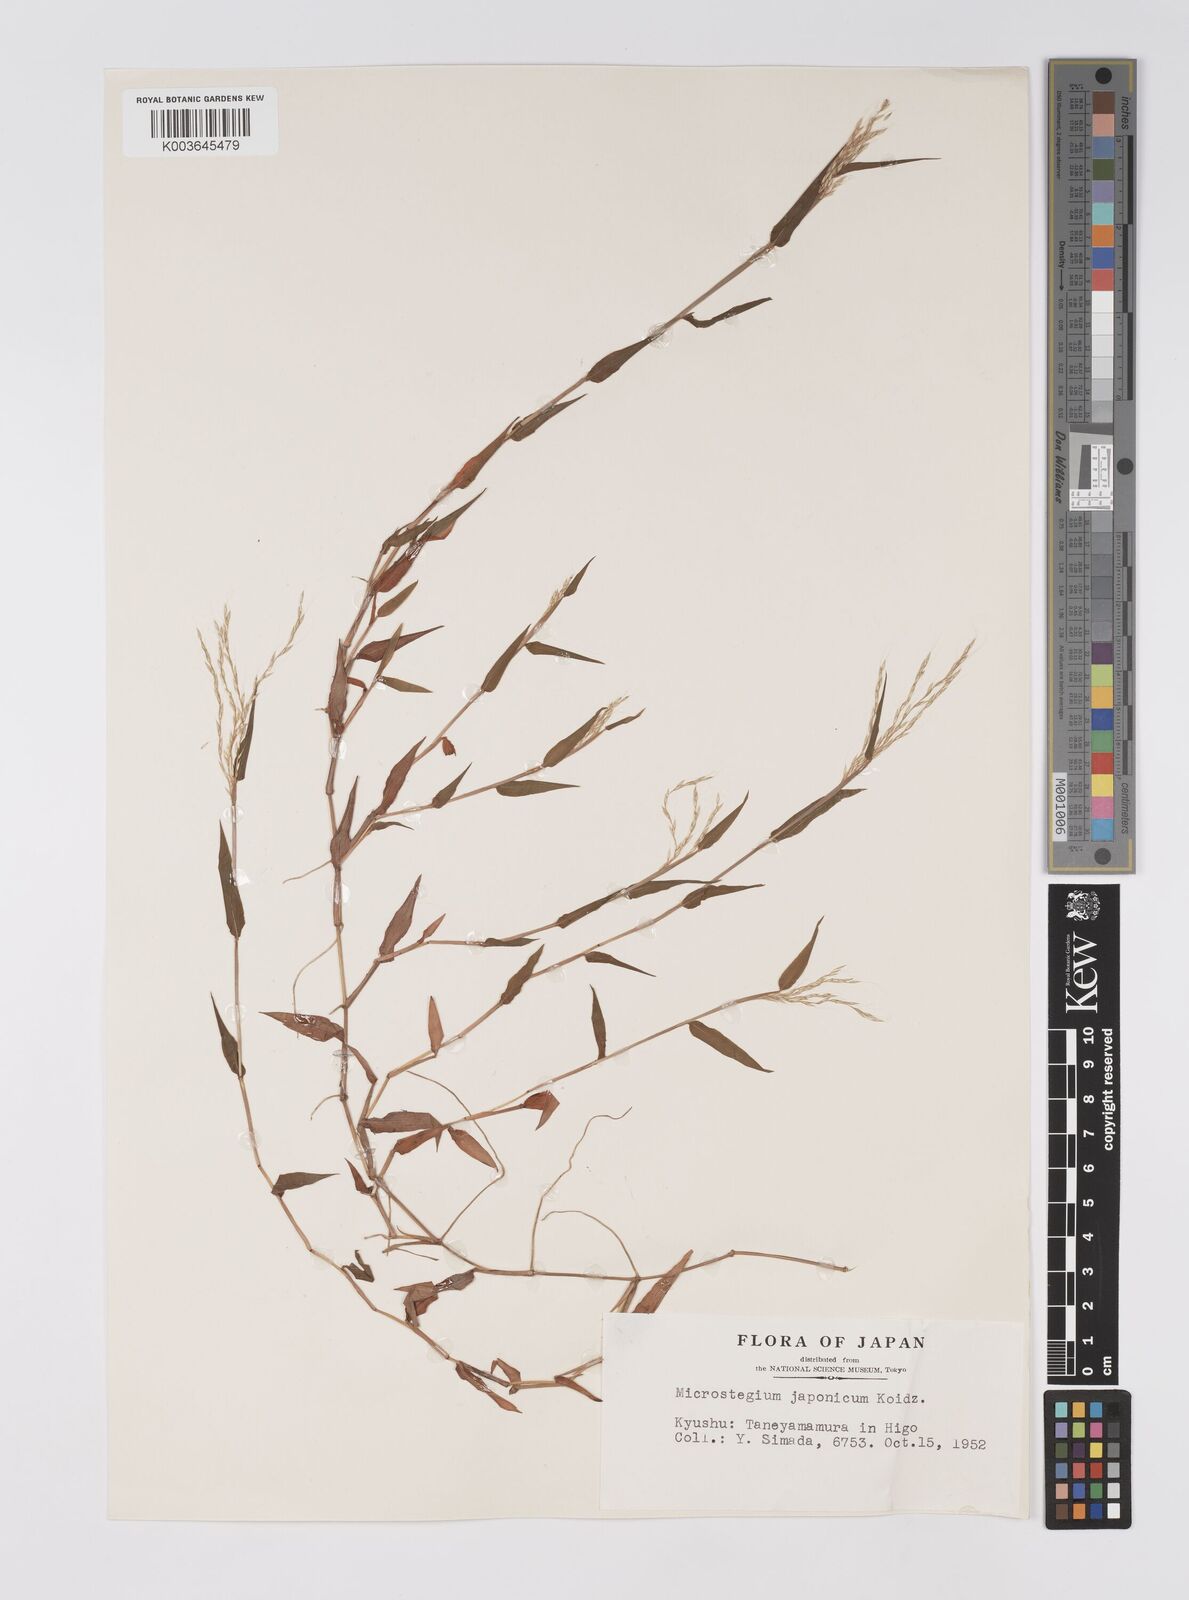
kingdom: Plantae
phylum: Tracheophyta
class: Liliopsida
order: Poales
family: Poaceae
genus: Microstegium
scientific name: Microstegium japonicum
